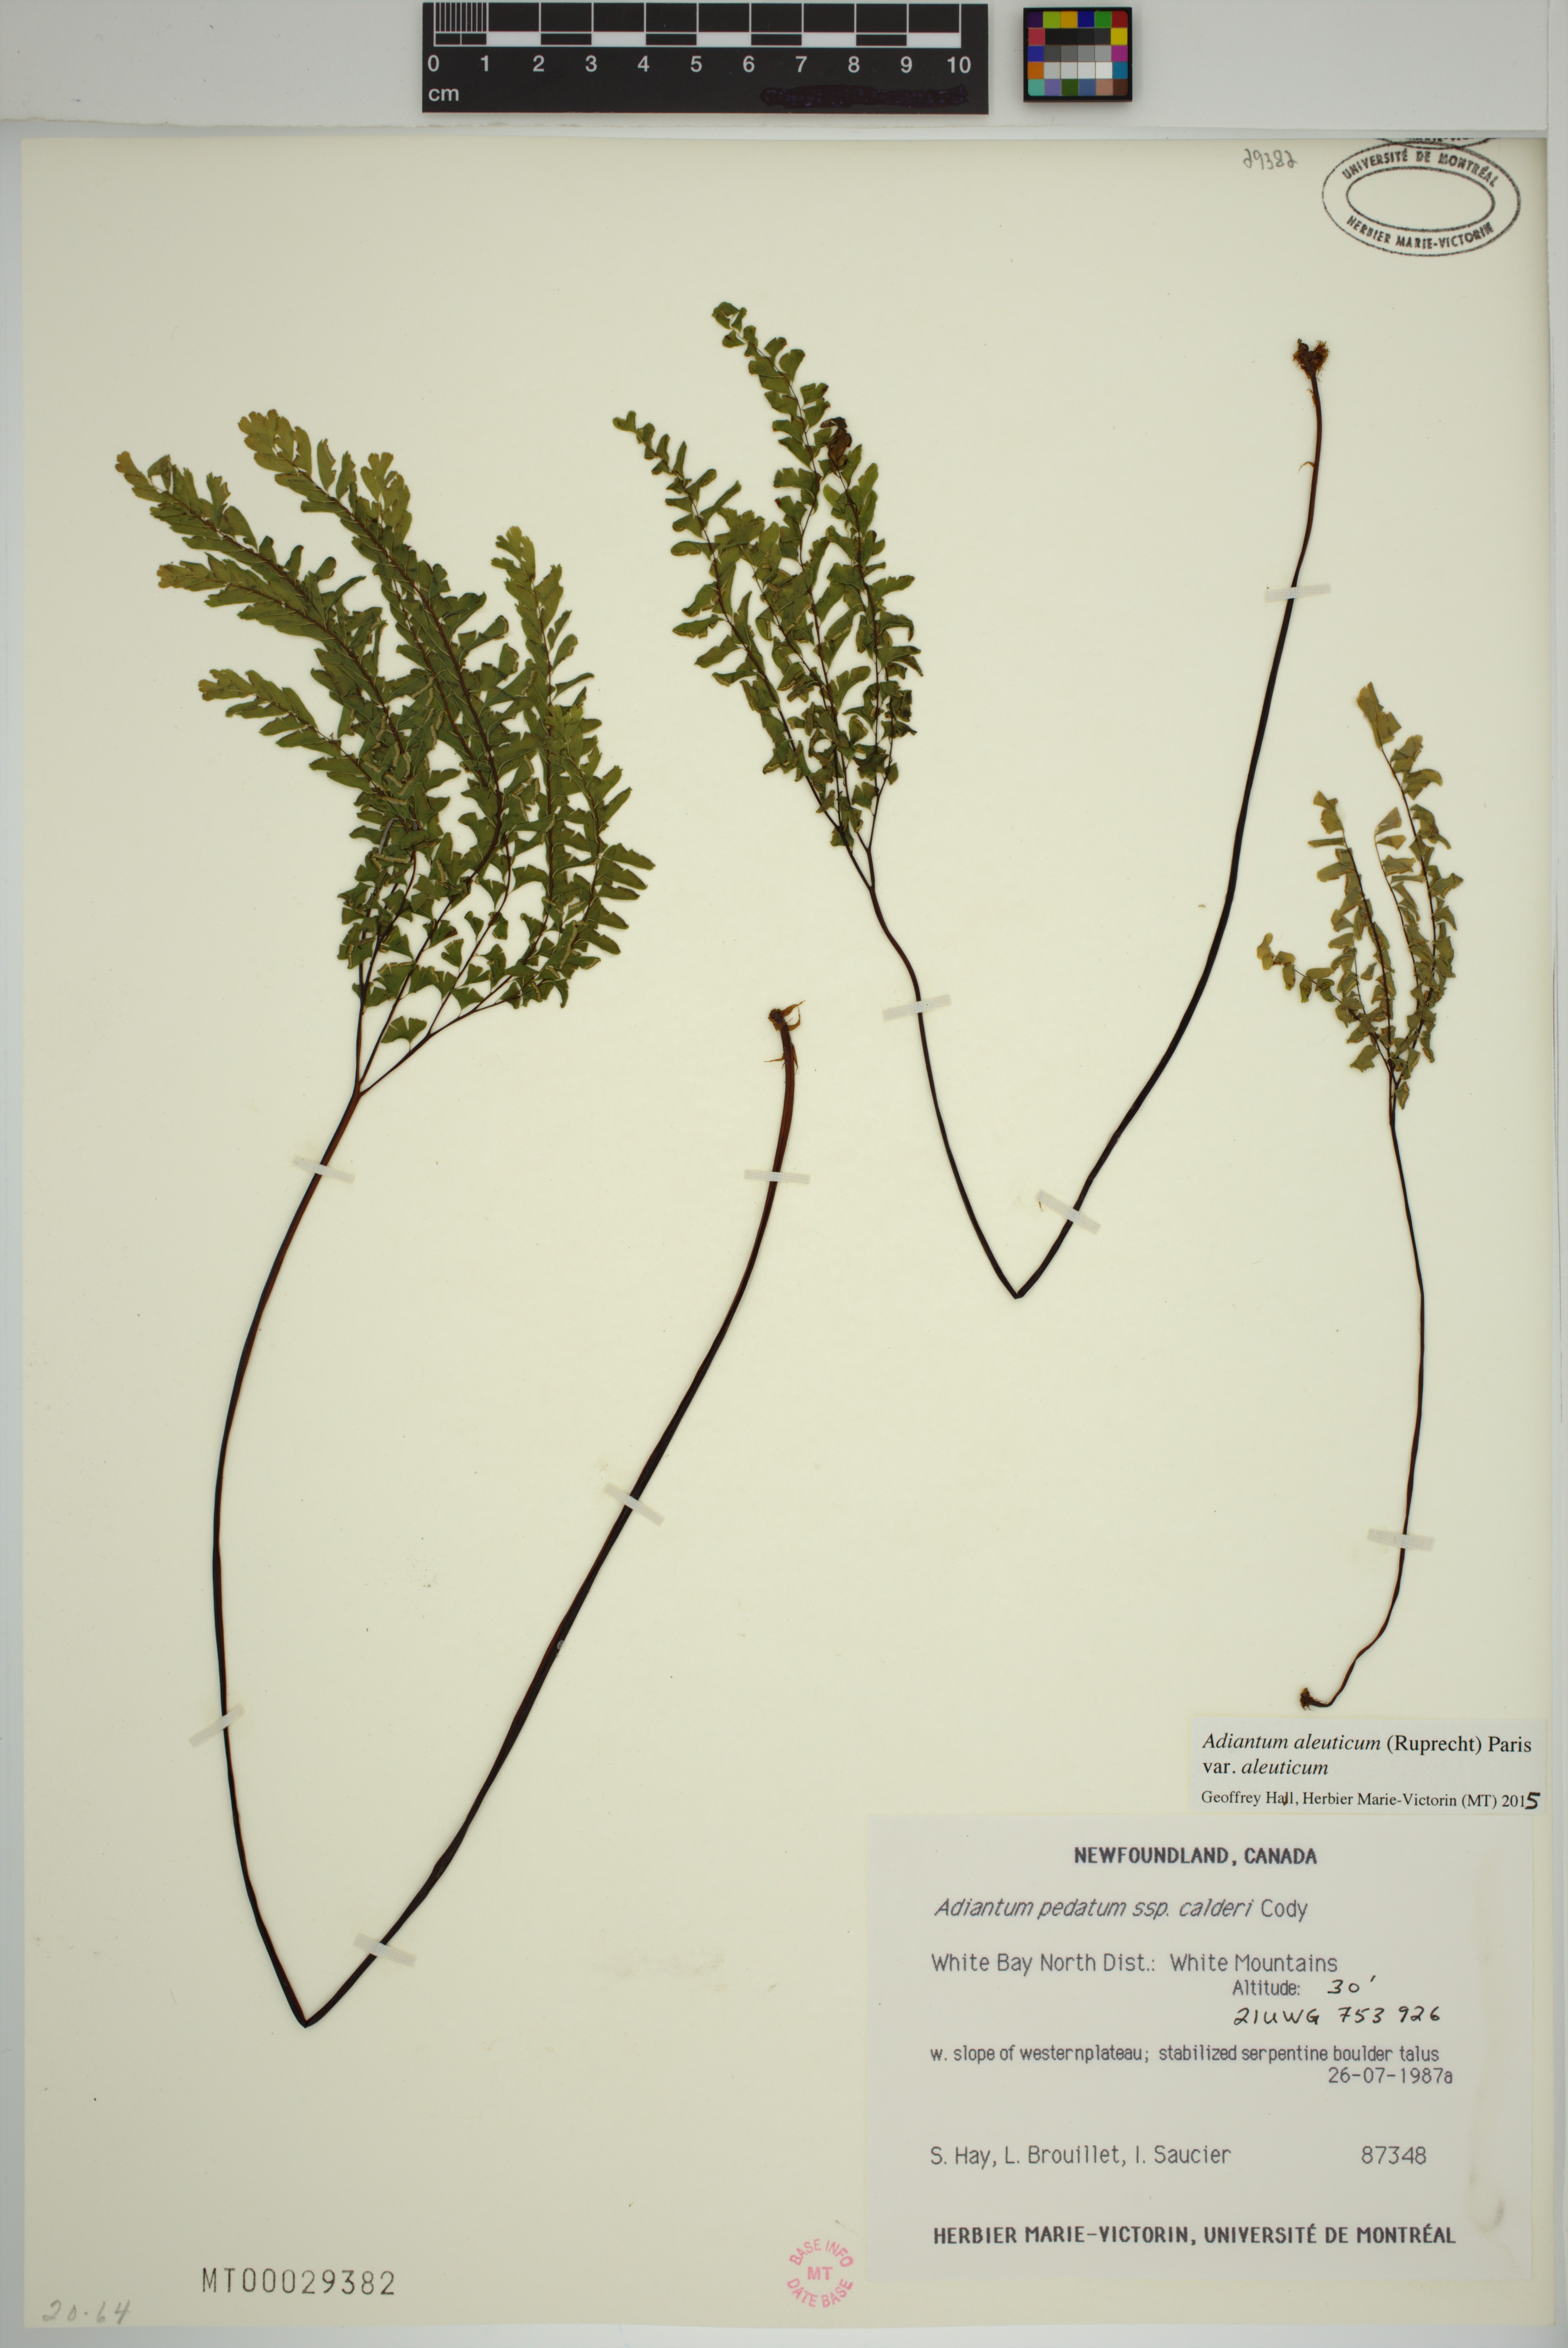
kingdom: Plantae
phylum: Tracheophyta
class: Polypodiopsida
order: Polypodiales
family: Pteridaceae
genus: Adiantum
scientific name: Adiantum aleuticum
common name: Aleutian maidenhair fern
